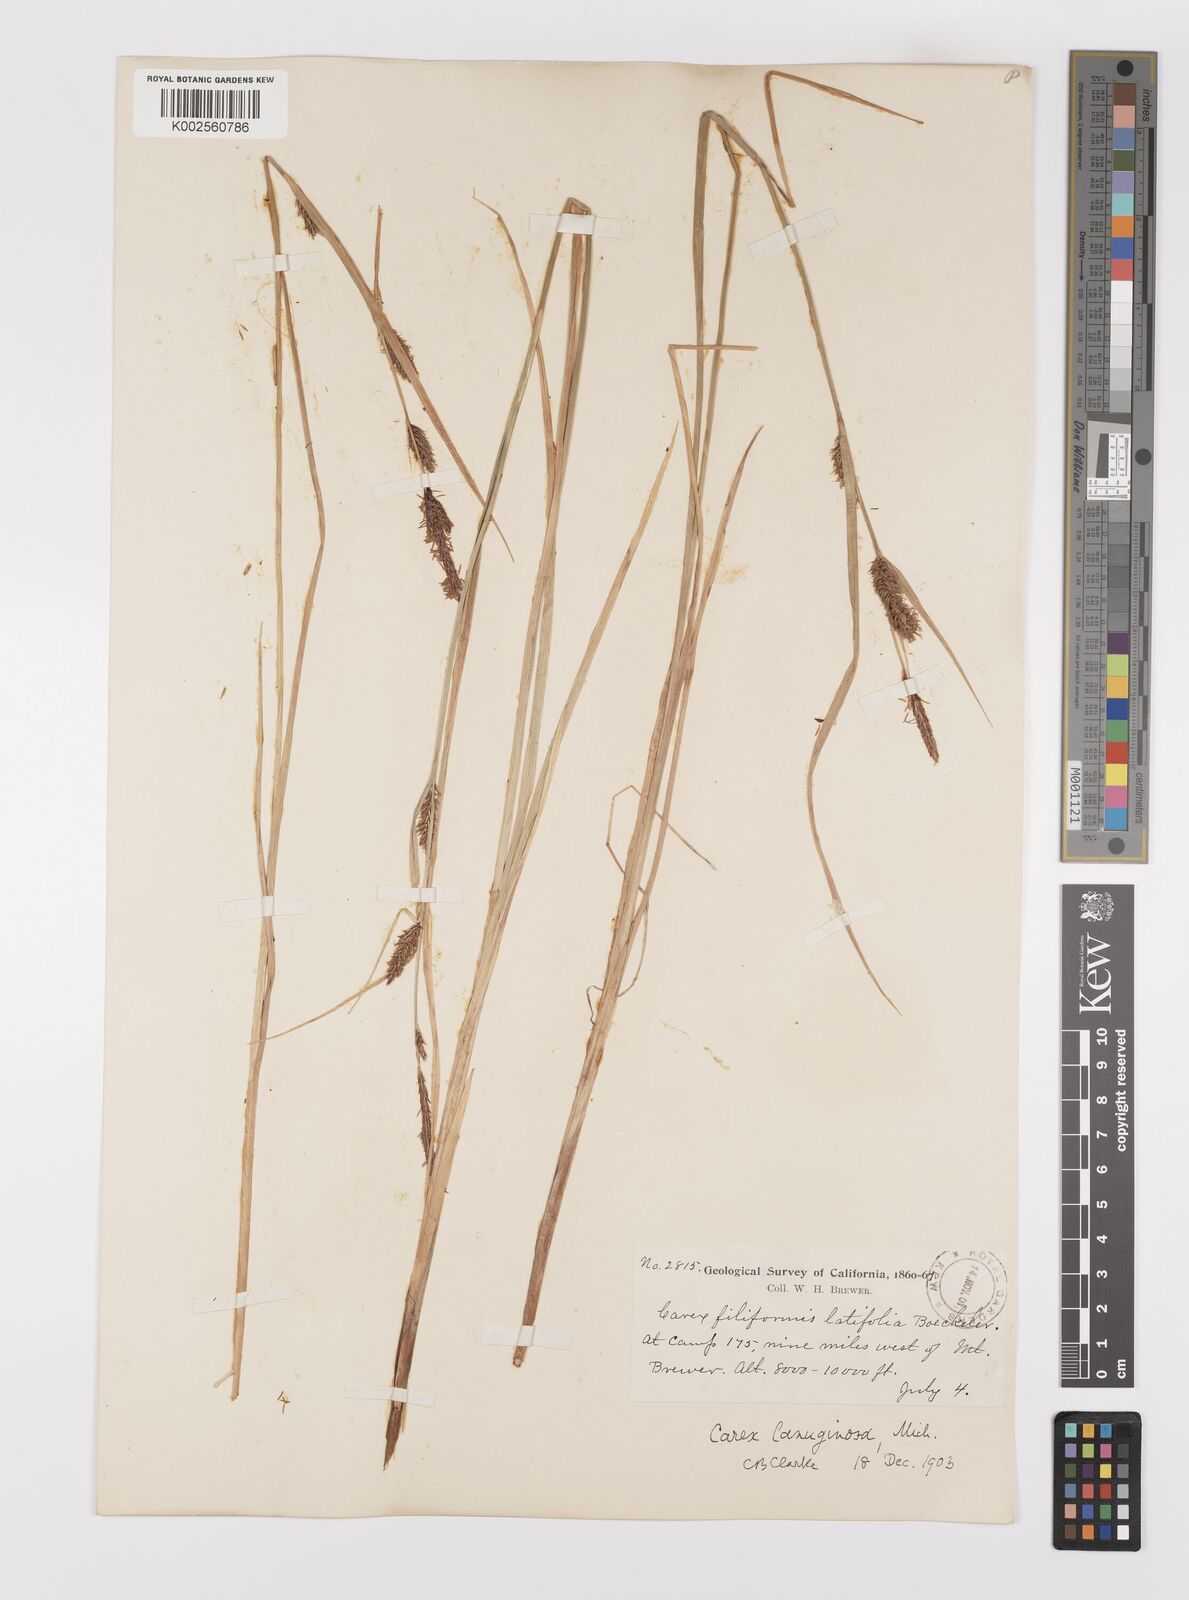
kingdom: Plantae
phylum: Tracheophyta
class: Liliopsida
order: Poales
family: Cyperaceae
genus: Carex
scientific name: Carex lasiocarpa
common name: Slender sedge
